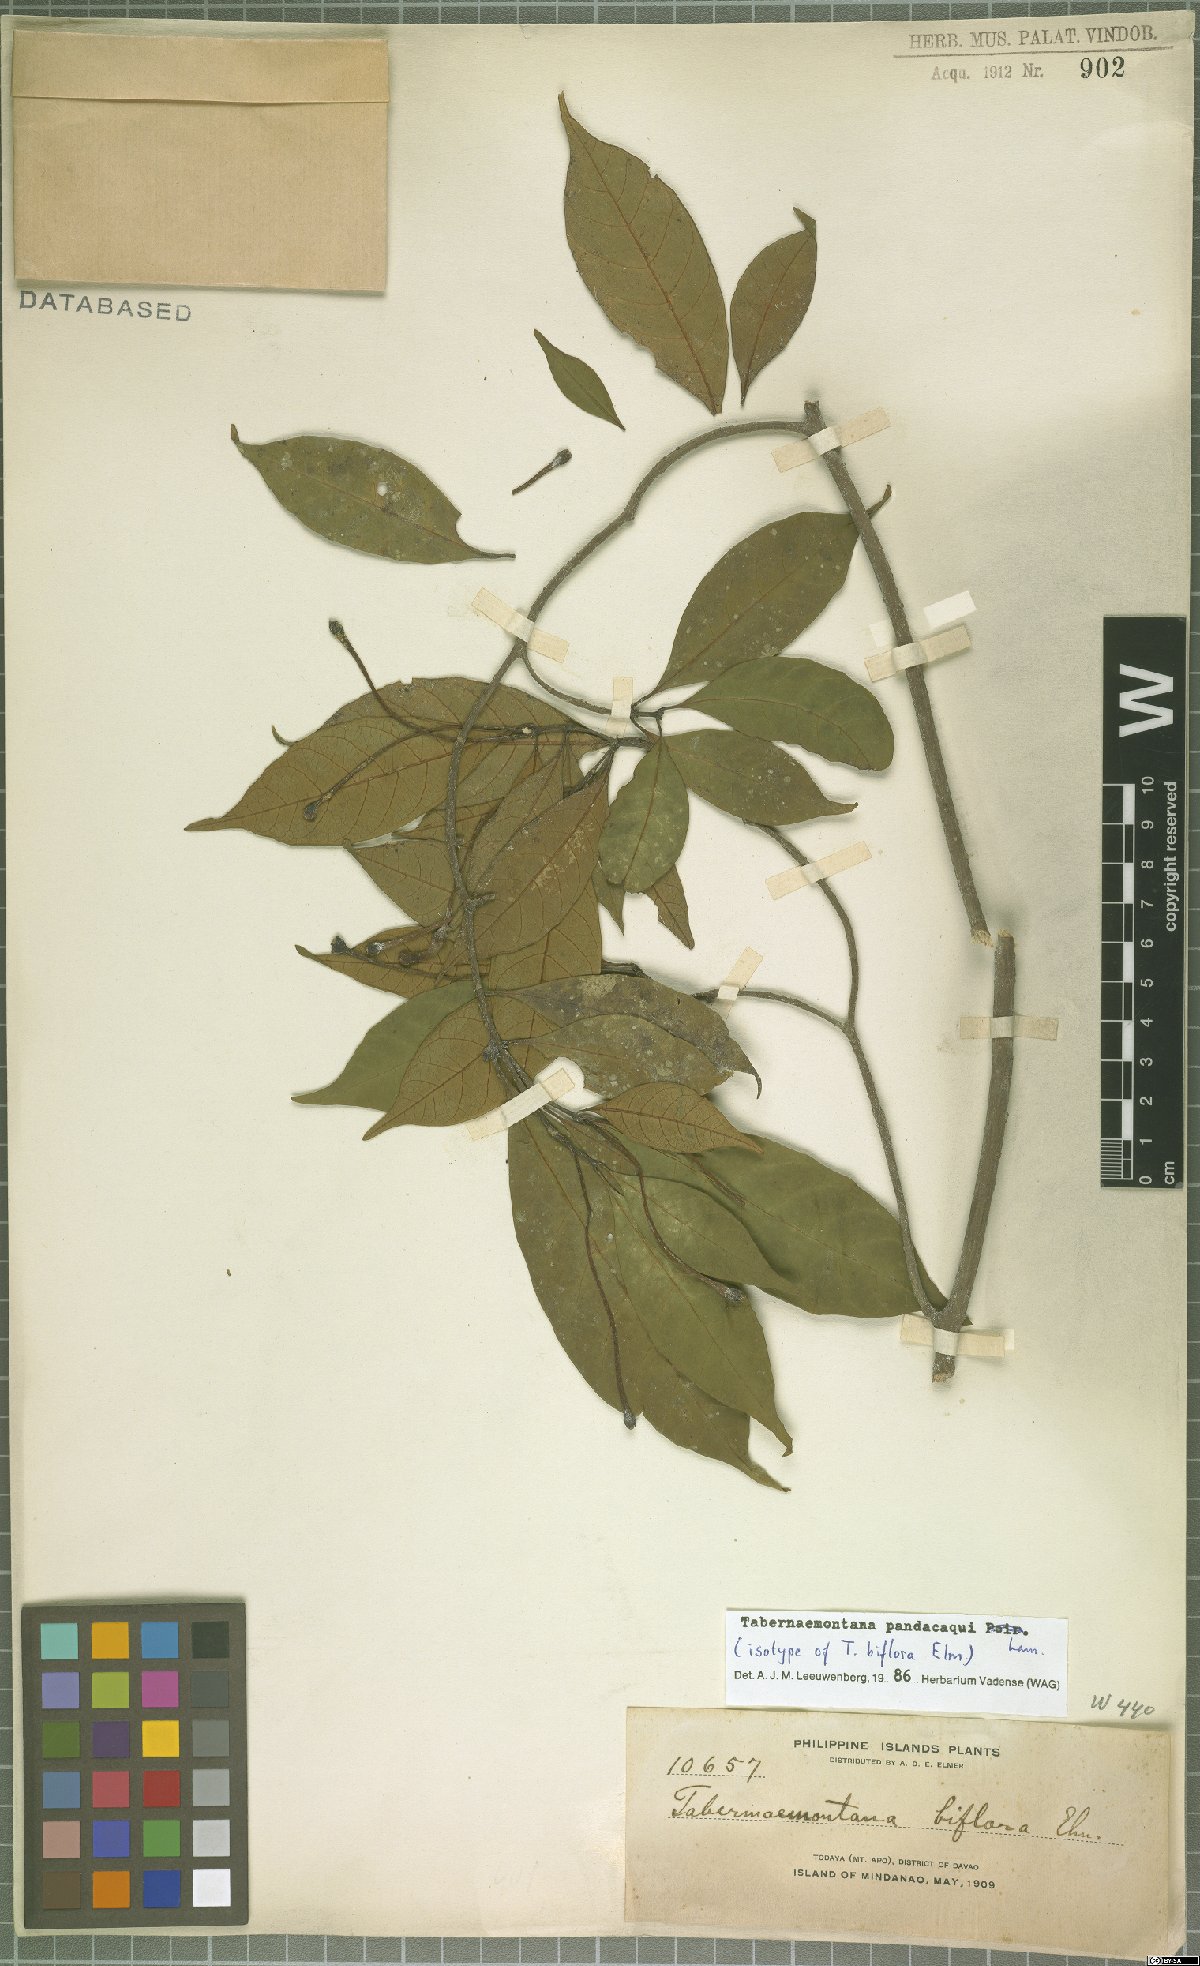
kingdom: Plantae
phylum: Tracheophyta
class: Magnoliopsida
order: Gentianales
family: Apocynaceae
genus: Tabernaemontana
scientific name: Tabernaemontana pandacaqui
